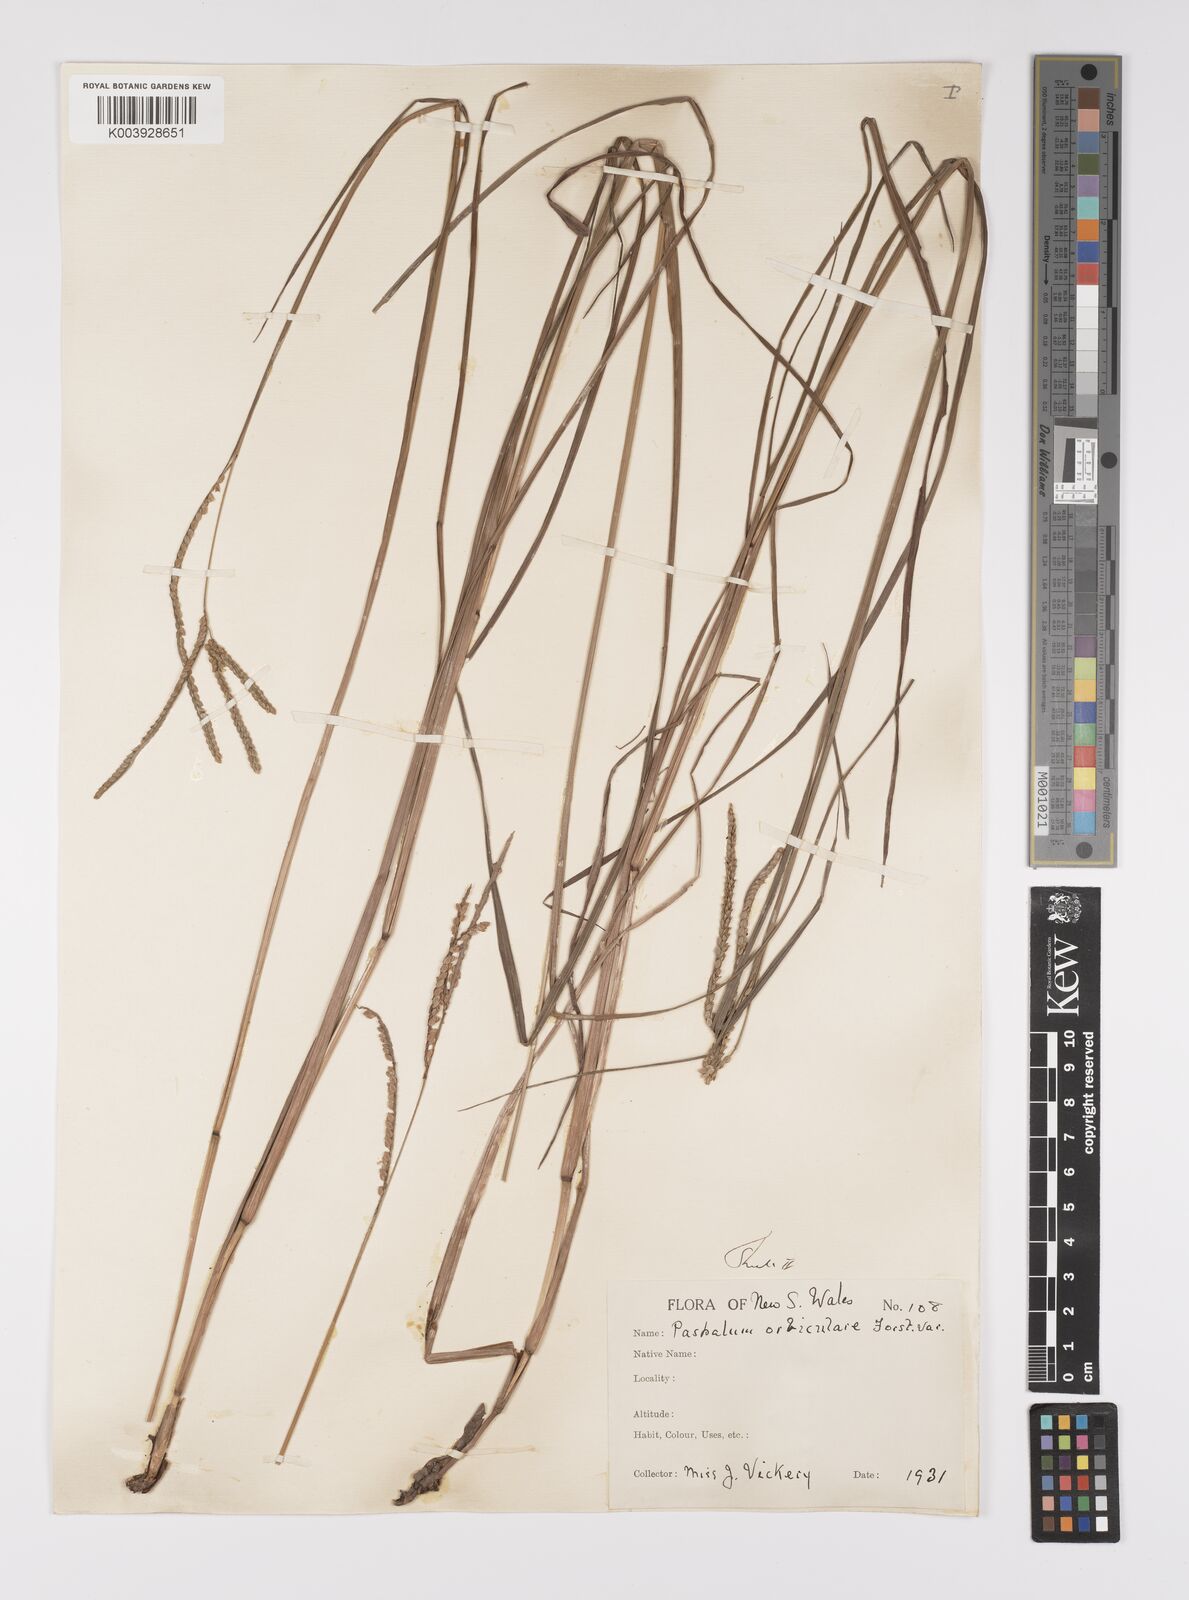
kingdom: Plantae
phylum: Tracheophyta
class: Liliopsida
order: Poales
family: Poaceae
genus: Paspalum
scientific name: Paspalum scrobiculatum
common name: Kodo millet
